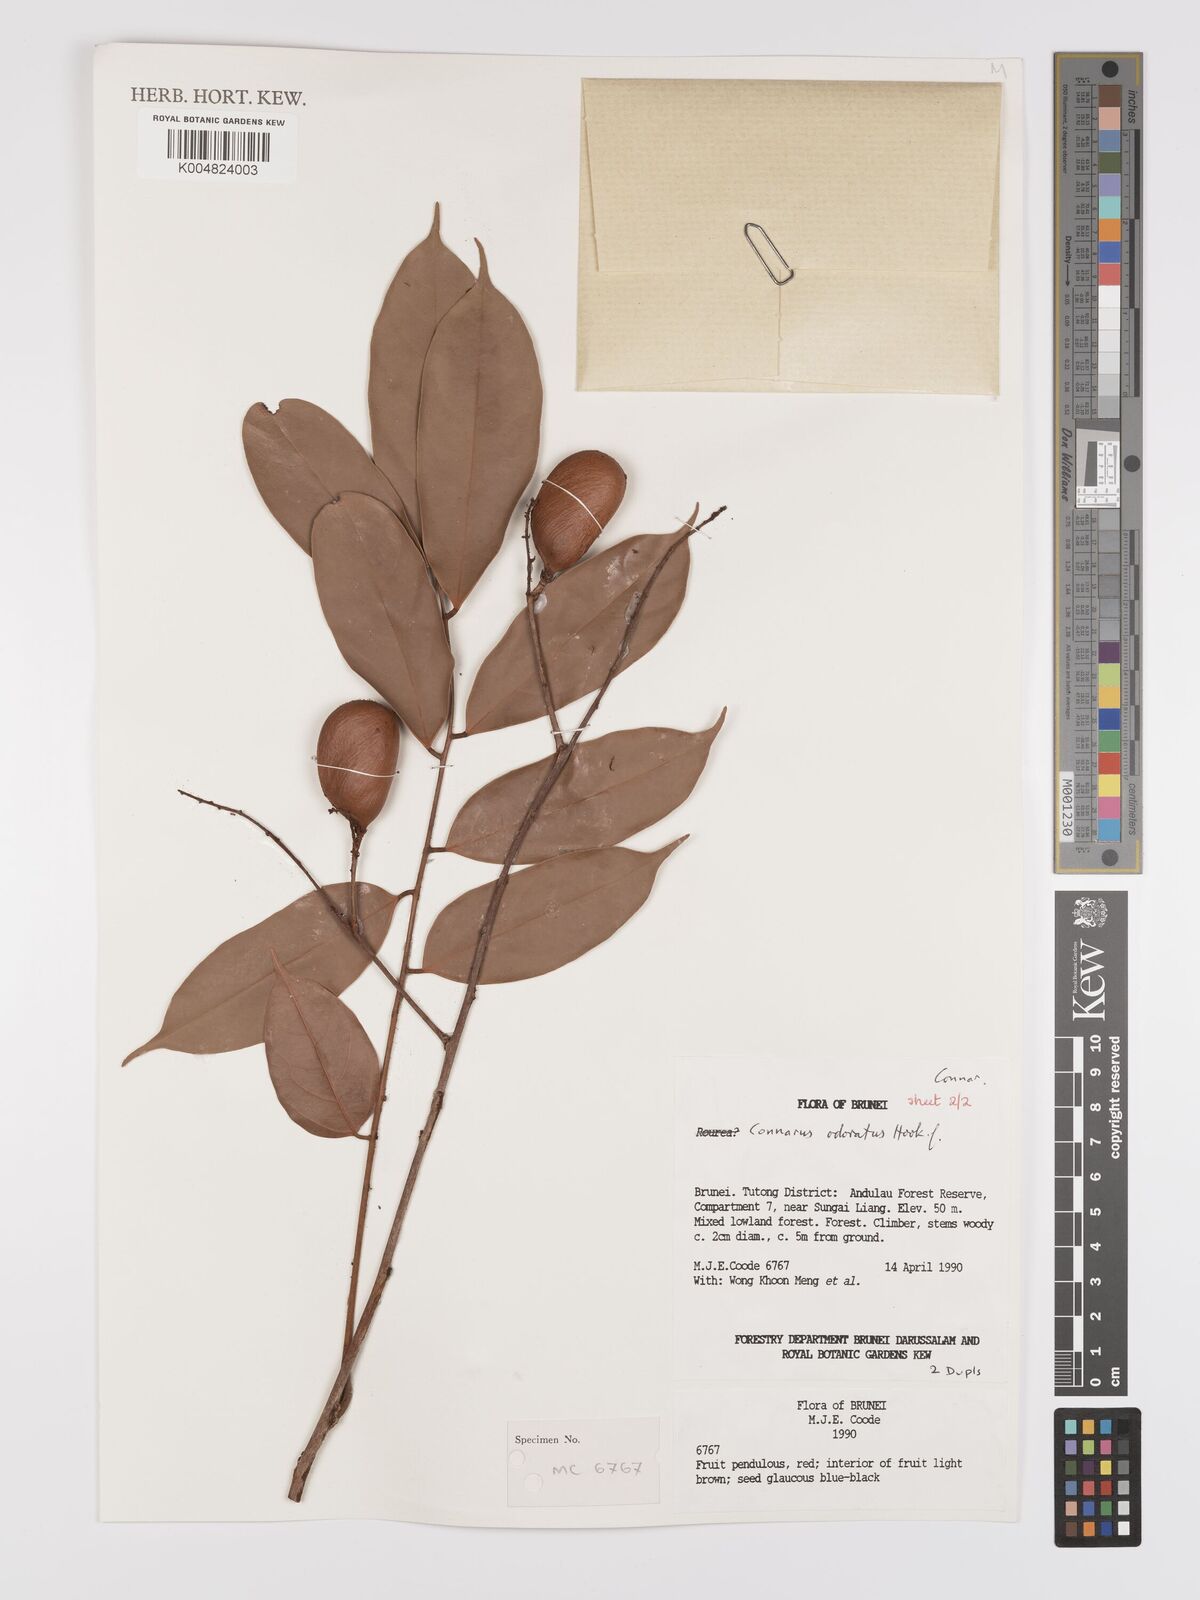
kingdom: Plantae
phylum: Tracheophyta
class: Magnoliopsida
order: Oxalidales
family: Connaraceae
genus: Connarus
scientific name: Connarus odoratus
